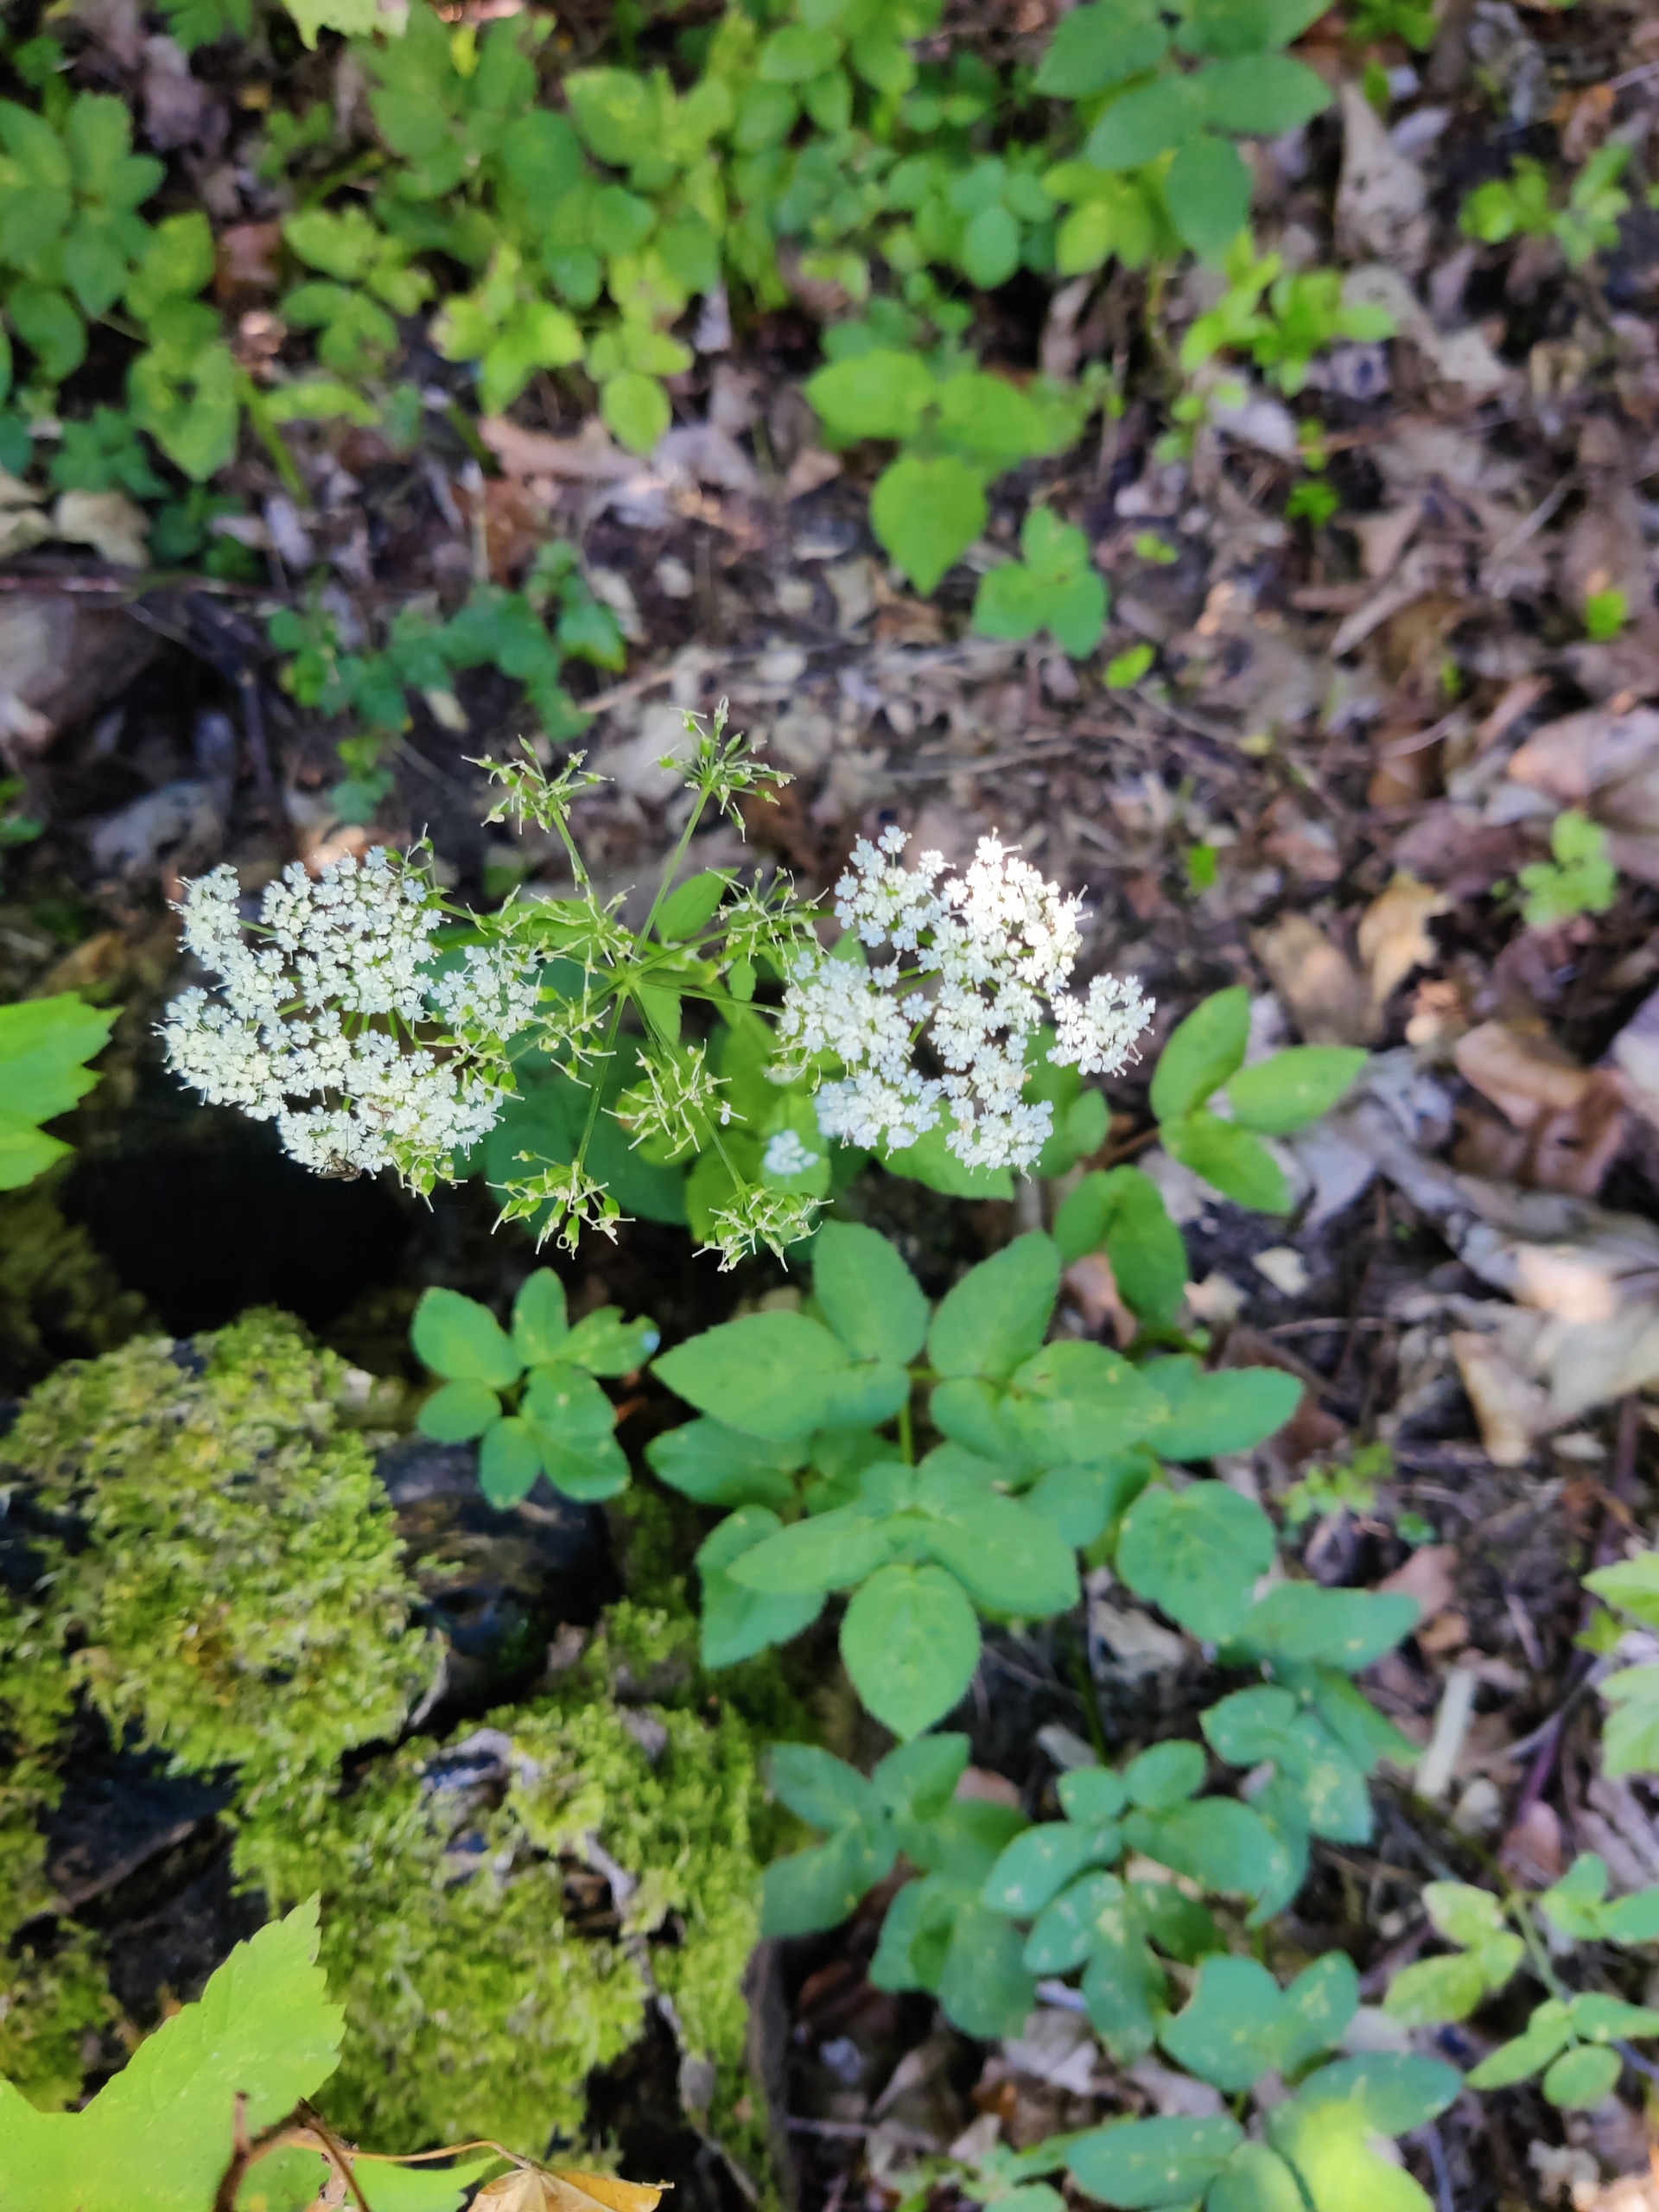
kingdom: Plantae
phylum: Tracheophyta
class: Magnoliopsida
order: Apiales
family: Apiaceae
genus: Aegopodium
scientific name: Aegopodium podagraria
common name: Skvalderkål
